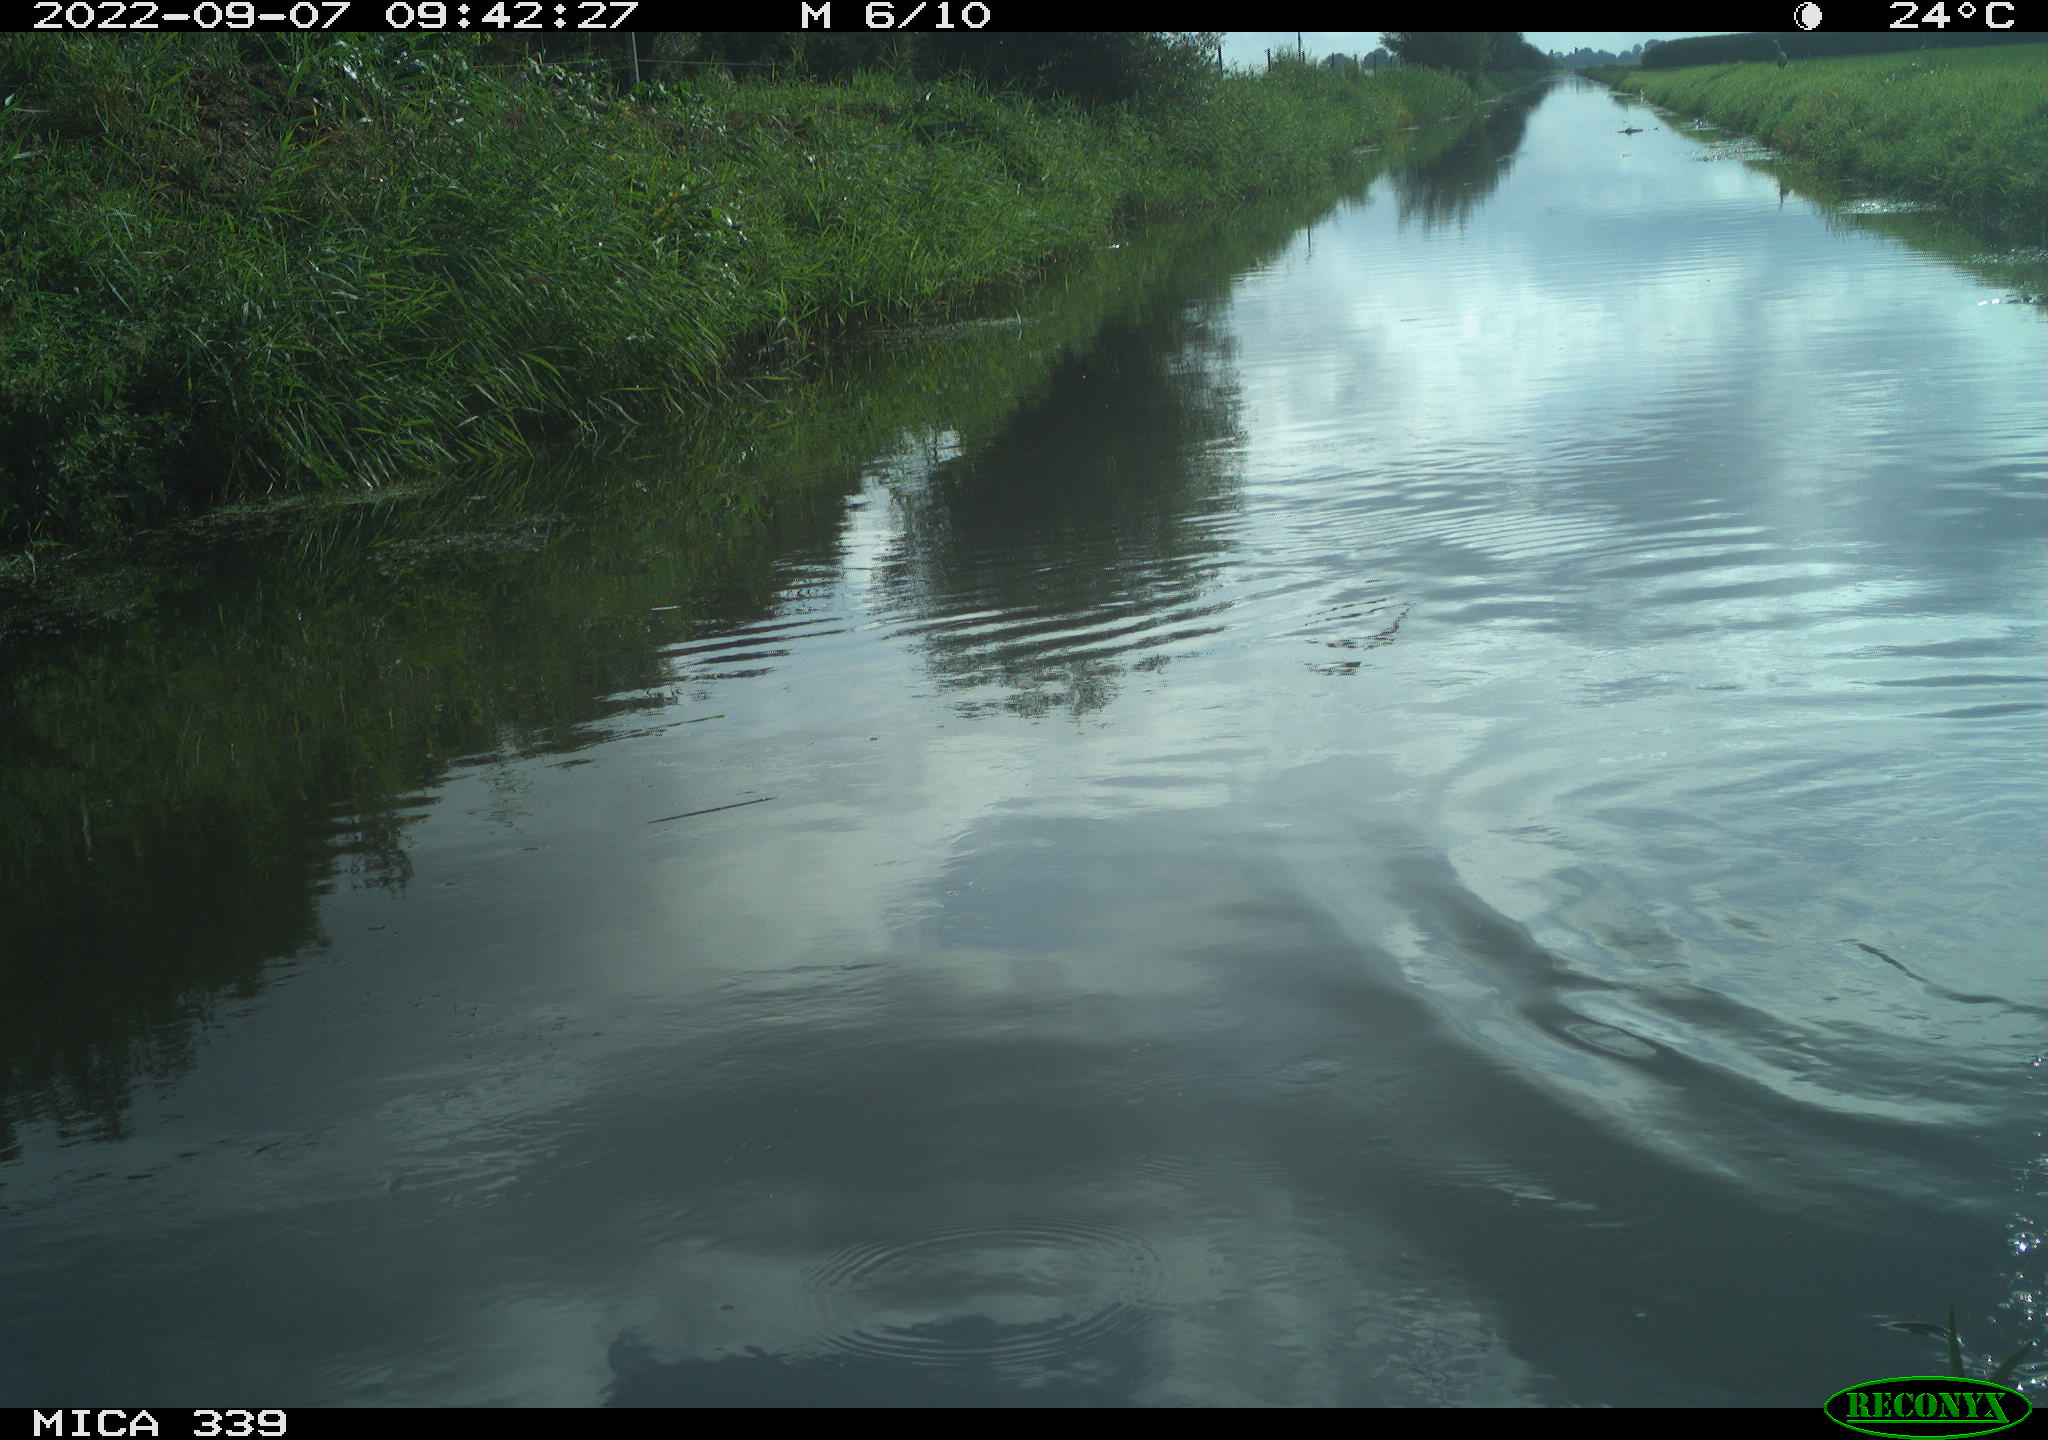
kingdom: Animalia
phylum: Chordata
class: Aves
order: Charadriiformes
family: Laridae
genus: Chroicocephalus
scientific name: Chroicocephalus ridibundus
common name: Black-headed gull
